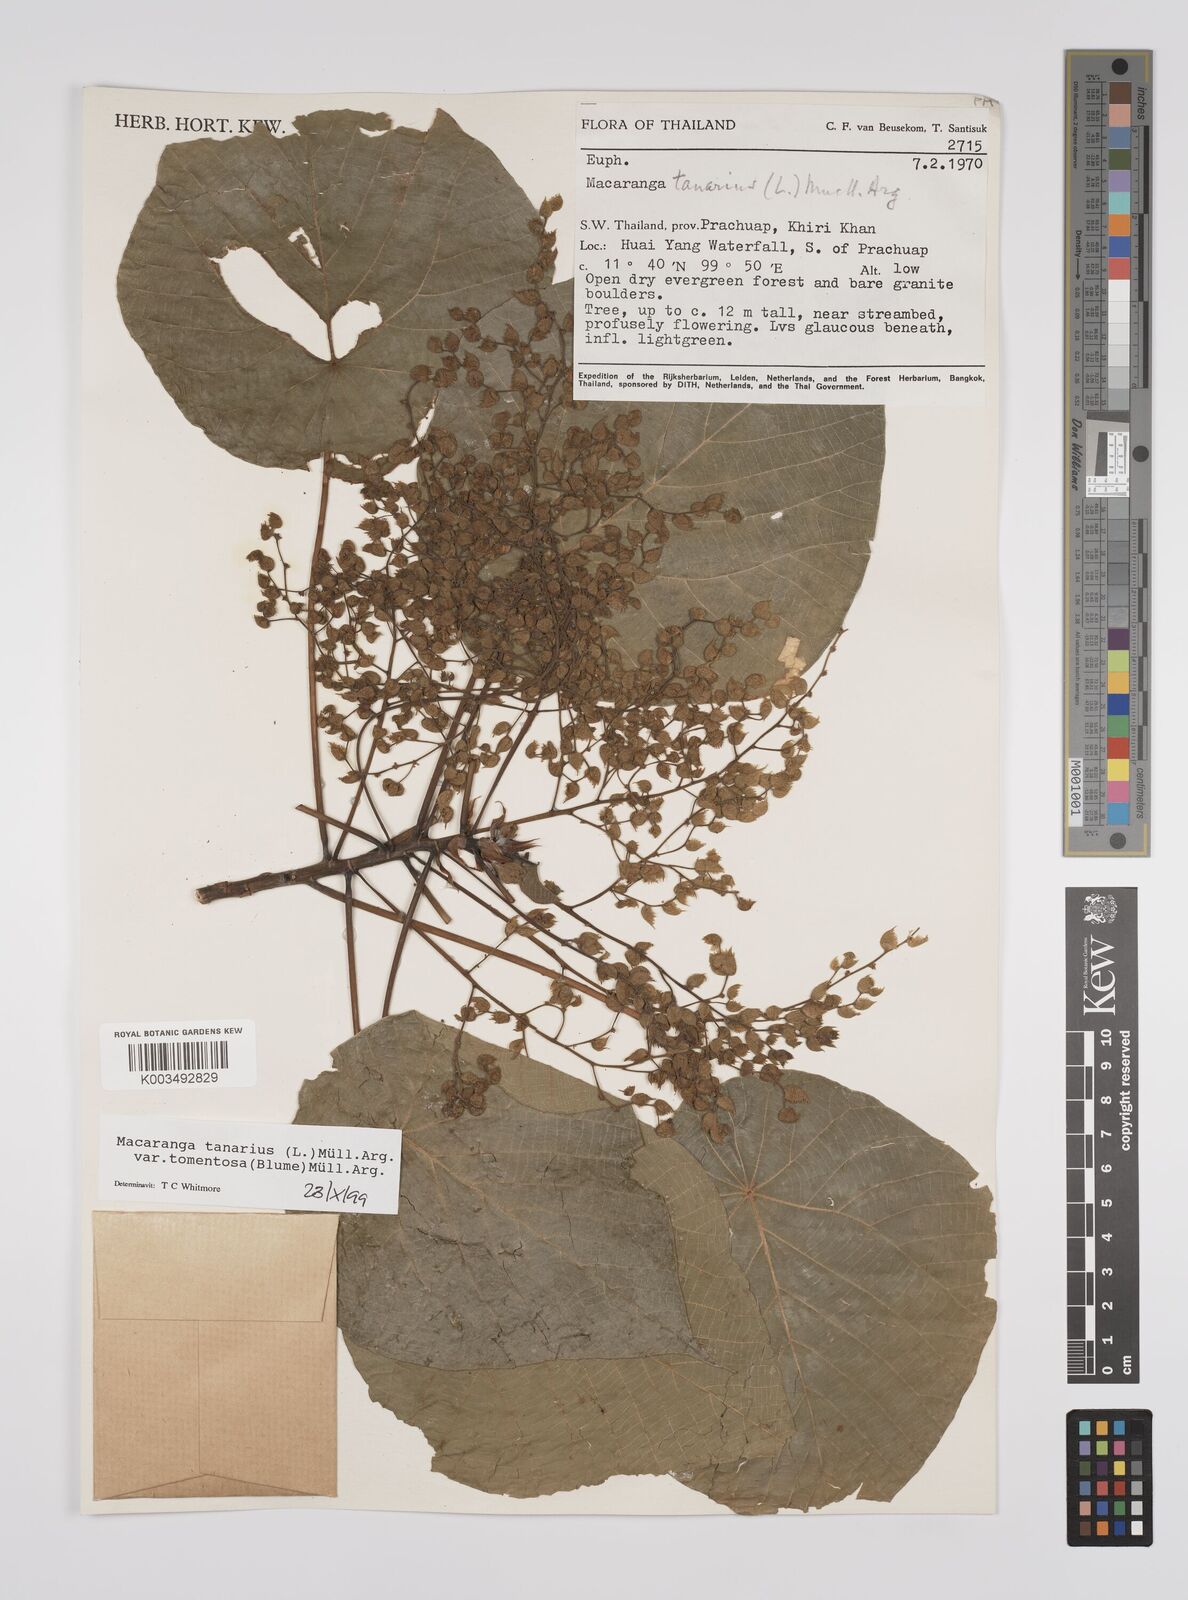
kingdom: Plantae
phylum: Tracheophyta
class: Magnoliopsida
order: Malpighiales
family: Euphorbiaceae
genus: Macaranga
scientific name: Macaranga tanarius
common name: Parasol leaf tree
